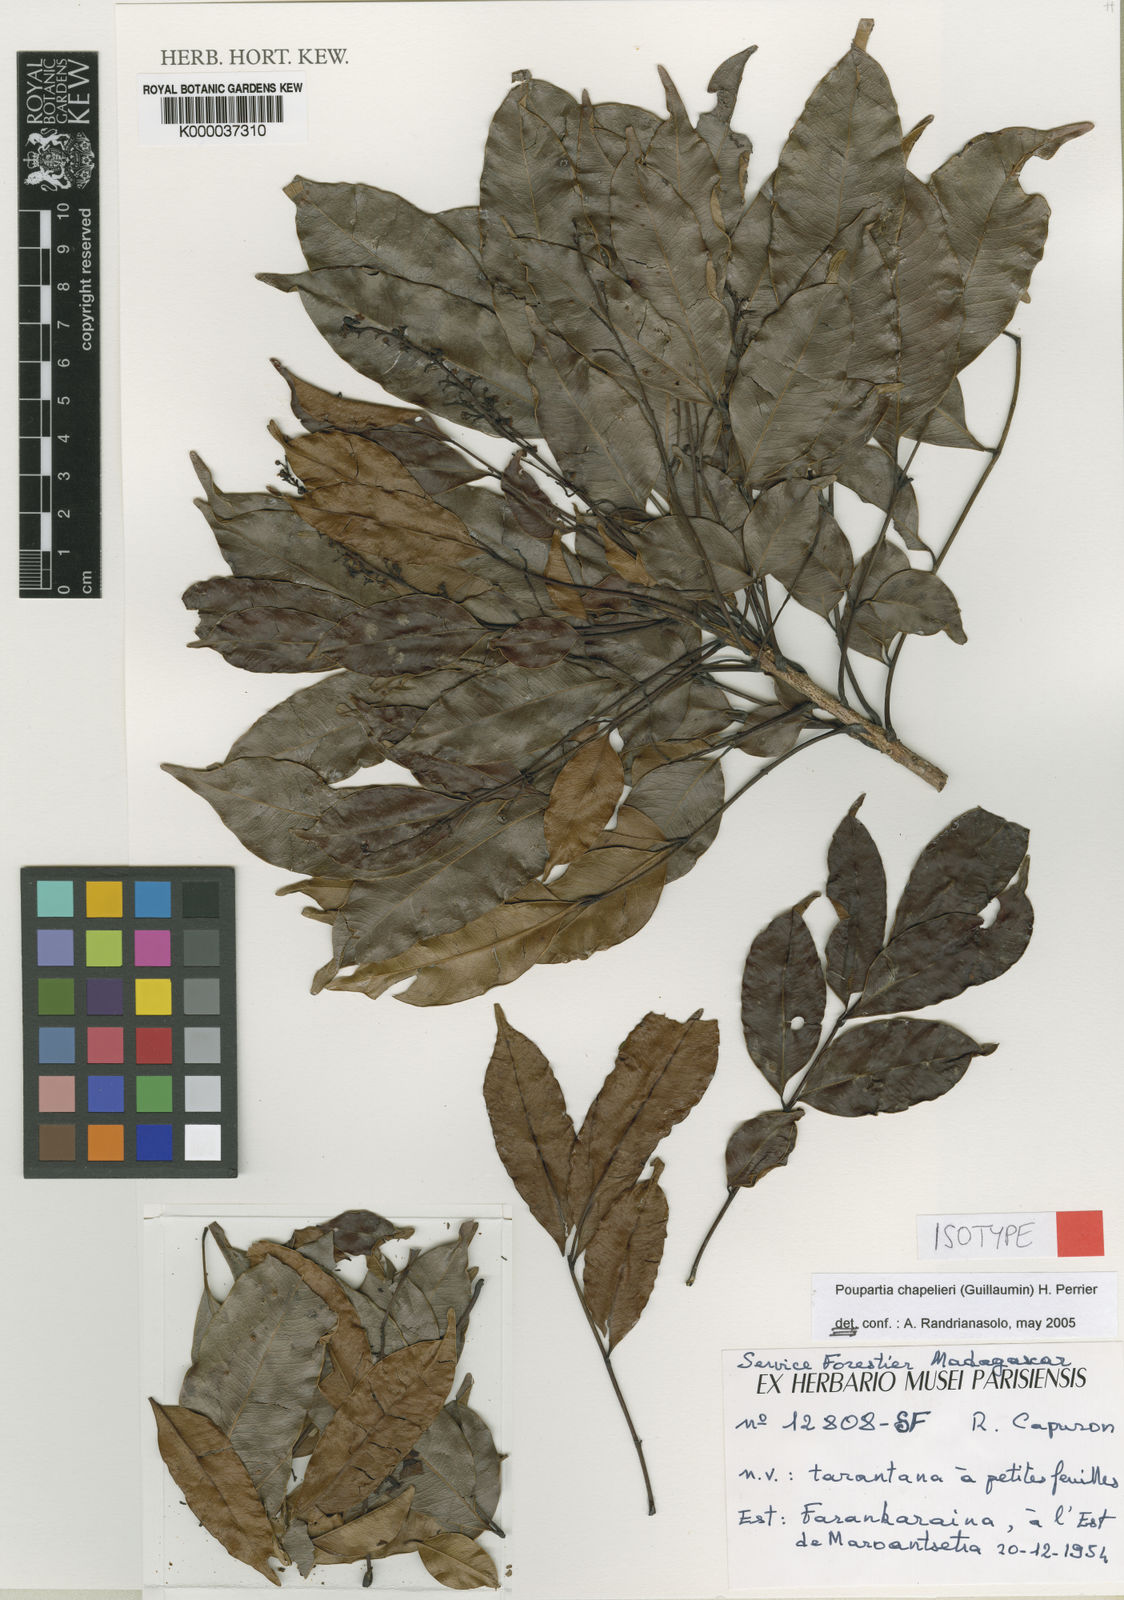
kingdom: Plantae
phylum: Tracheophyta
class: Magnoliopsida
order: Sapindales
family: Anacardiaceae
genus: Poupartia
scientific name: Poupartia chapelieri
